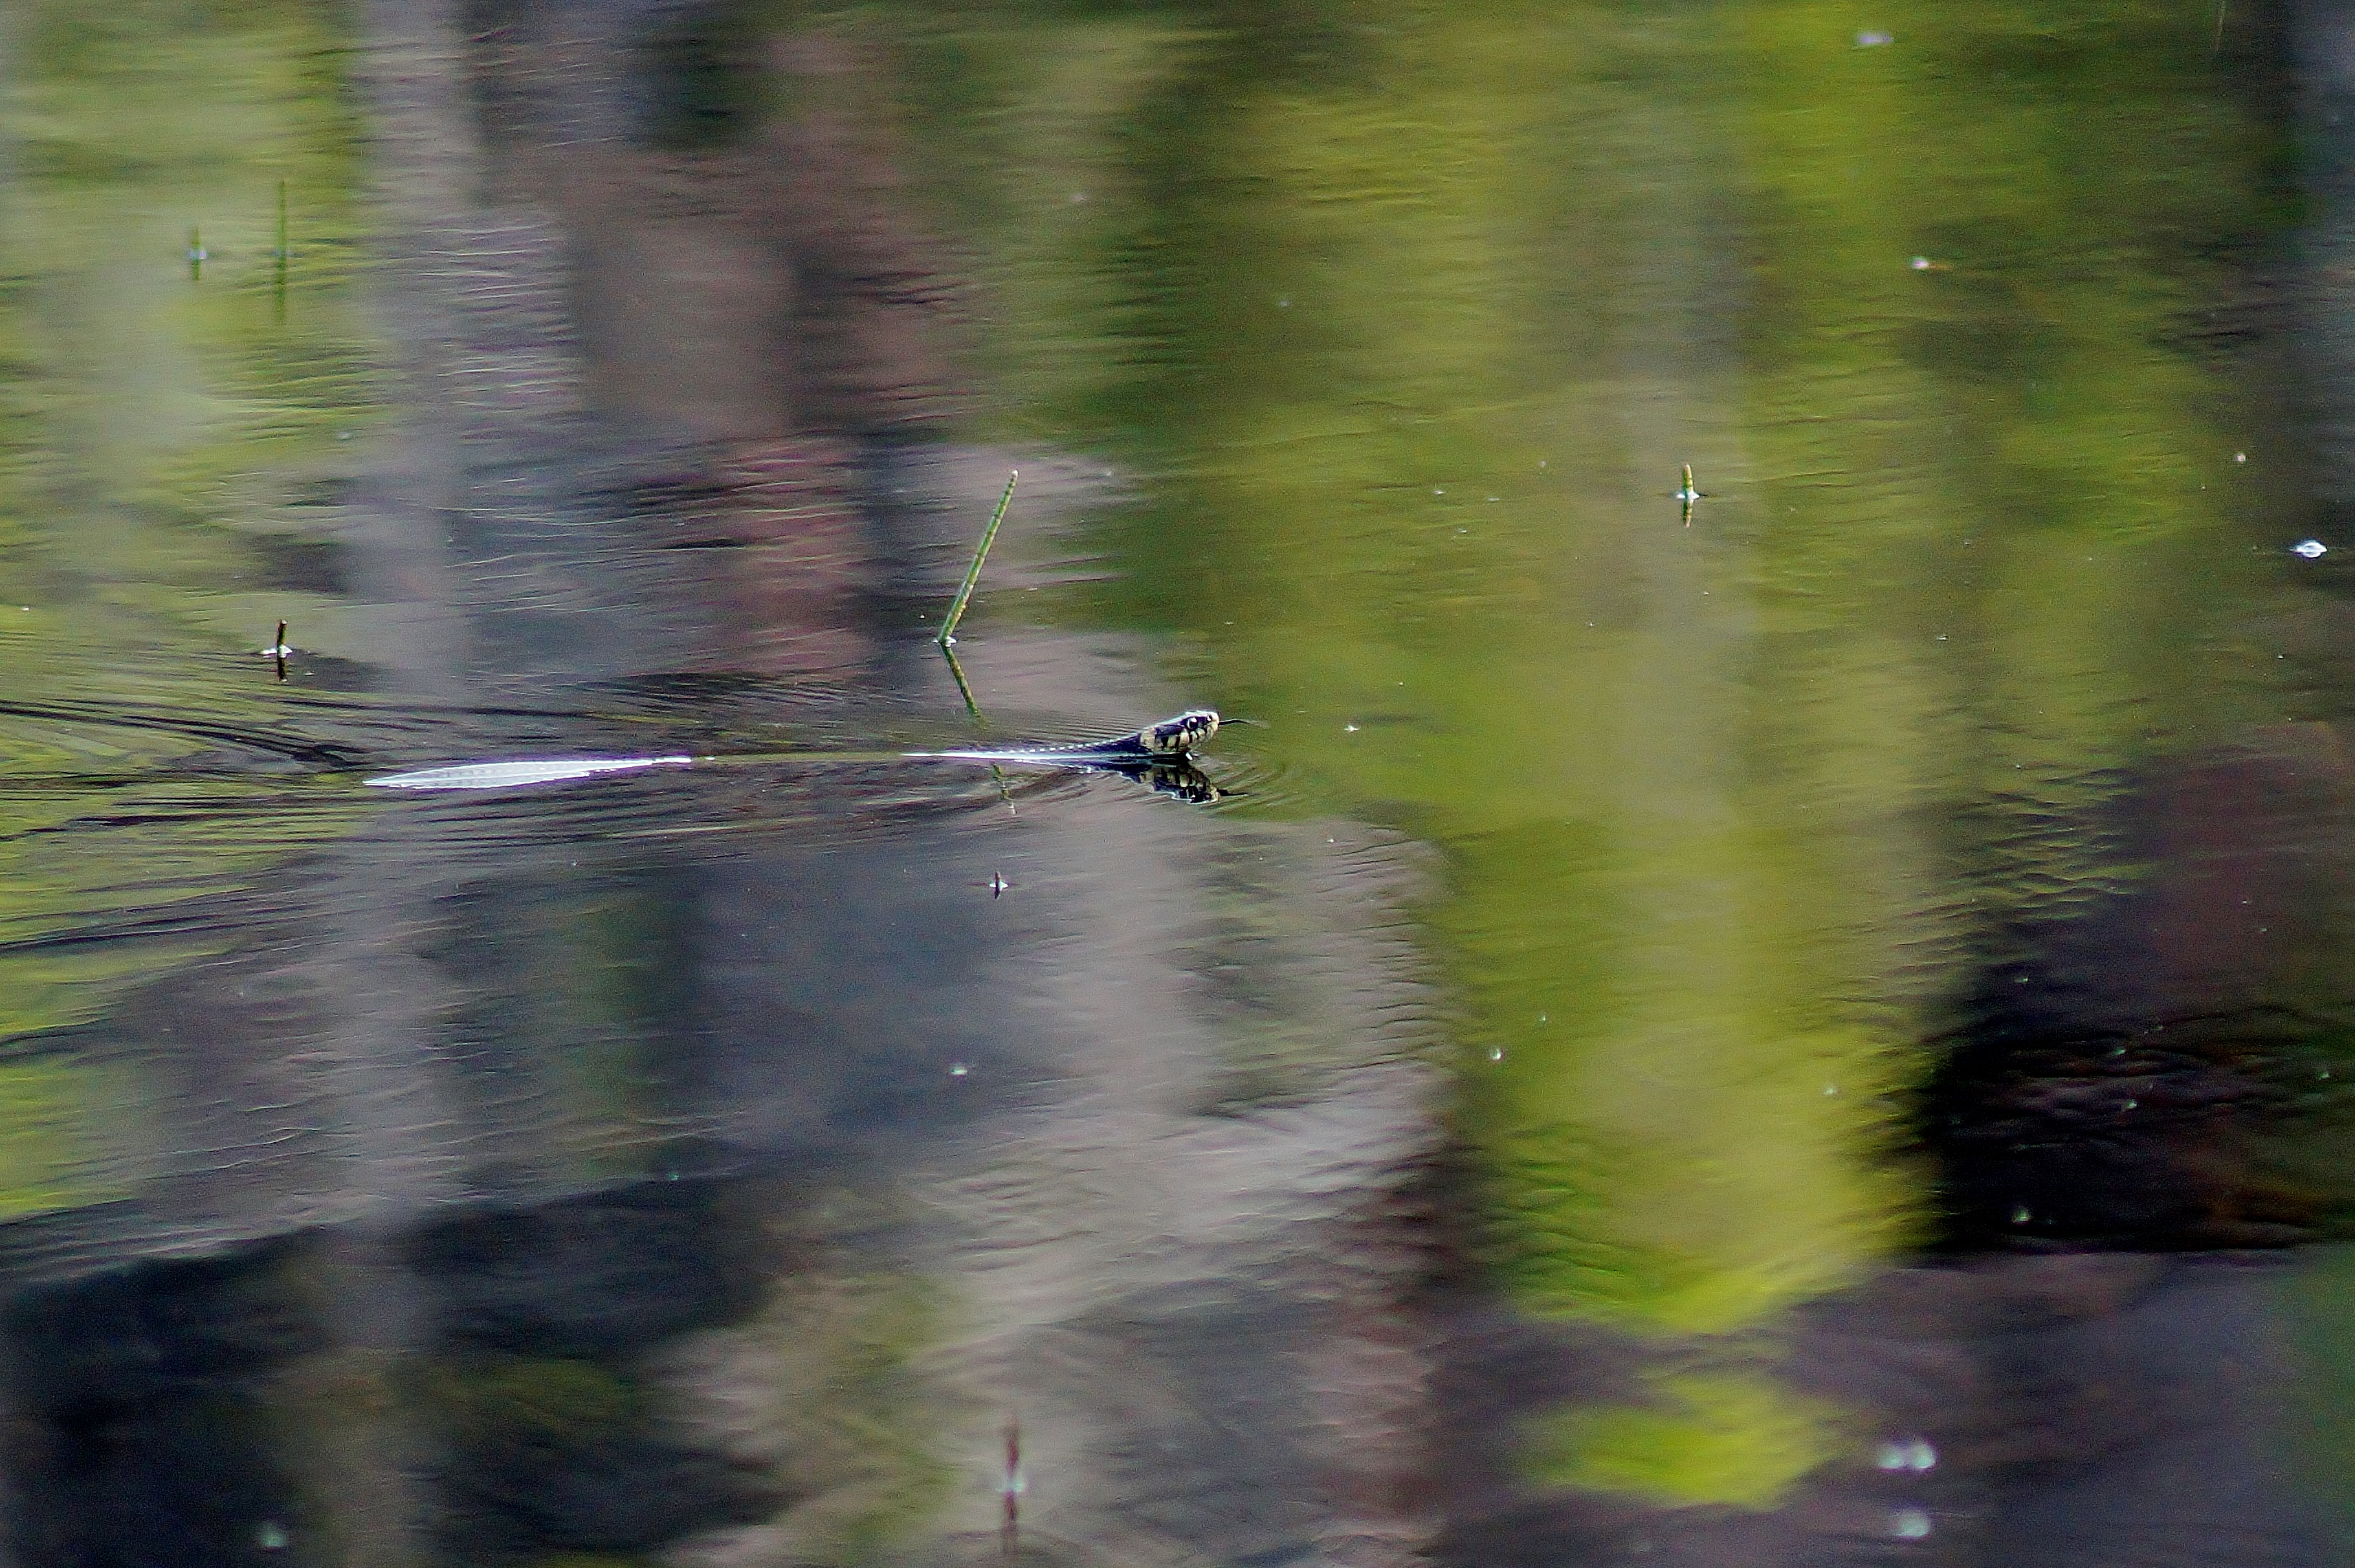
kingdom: Animalia
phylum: Chordata
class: Squamata
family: Colubridae
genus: Natrix
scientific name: Natrix natrix
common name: Grass snake
